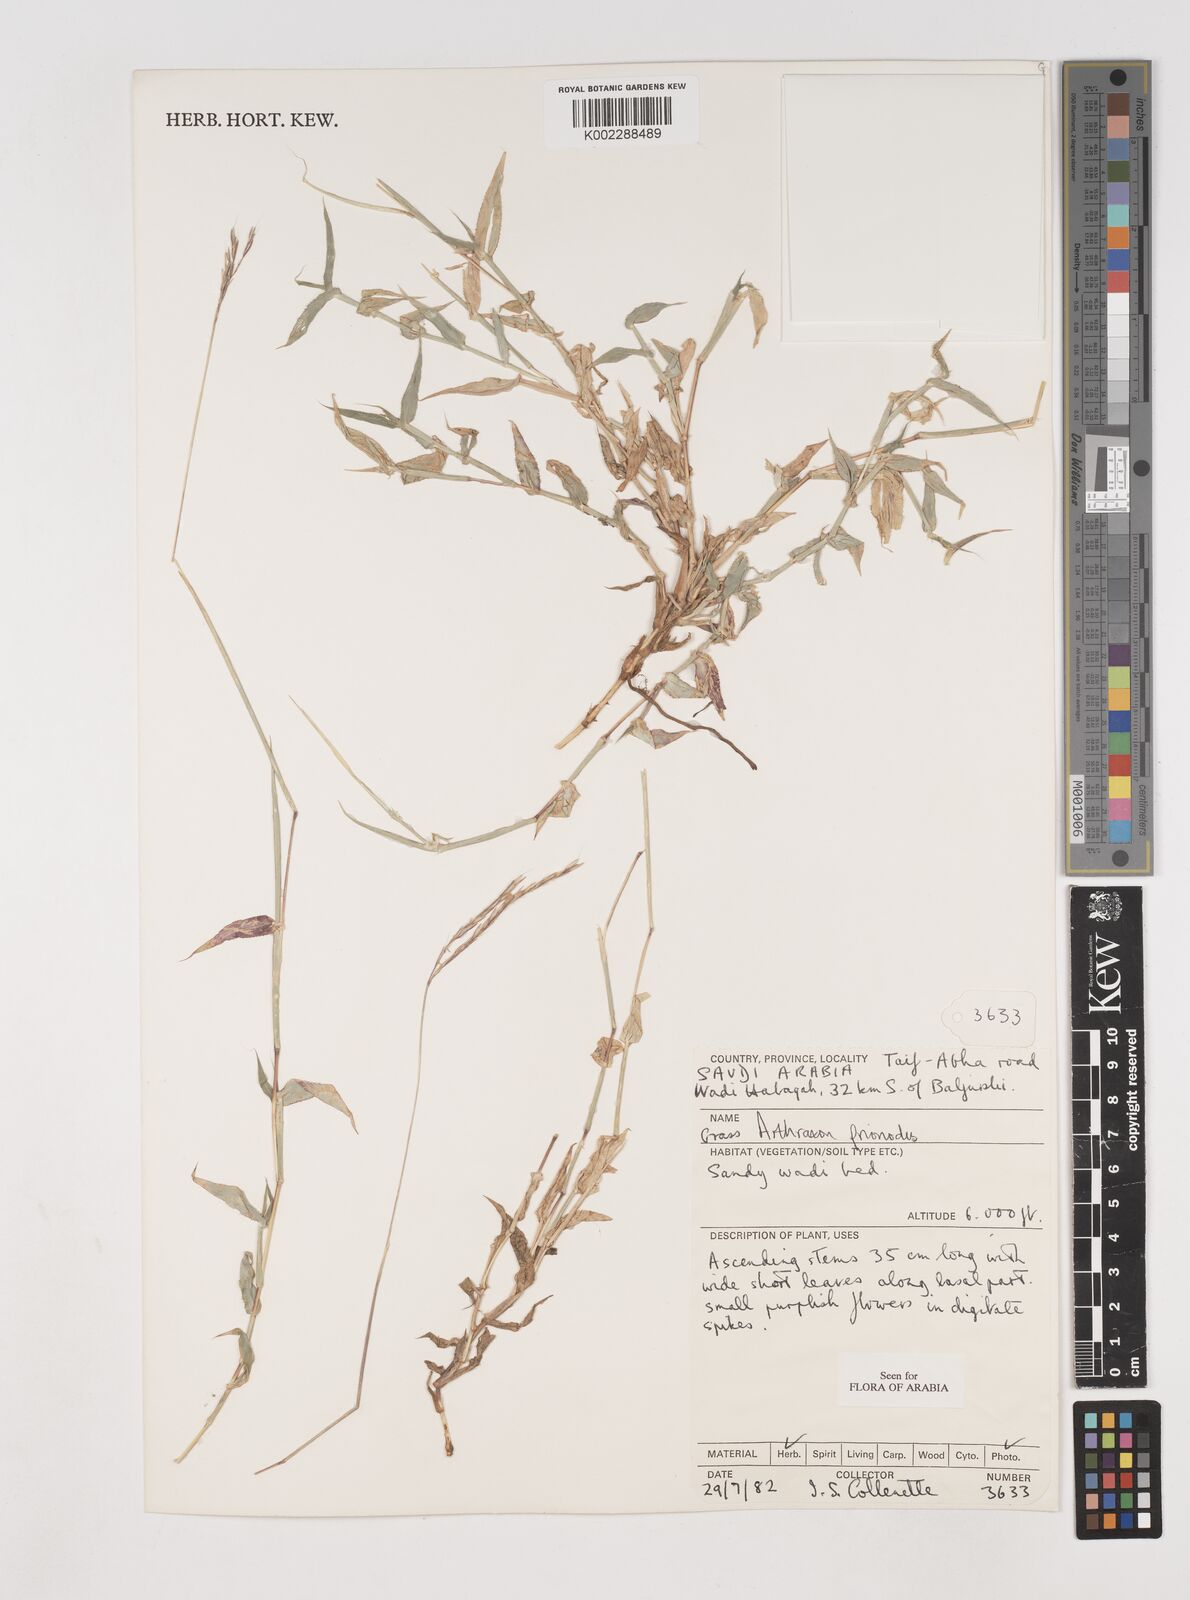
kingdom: Plantae
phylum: Tracheophyta
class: Liliopsida
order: Poales
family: Poaceae
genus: Arthraxon
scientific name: Arthraxon prionodes
